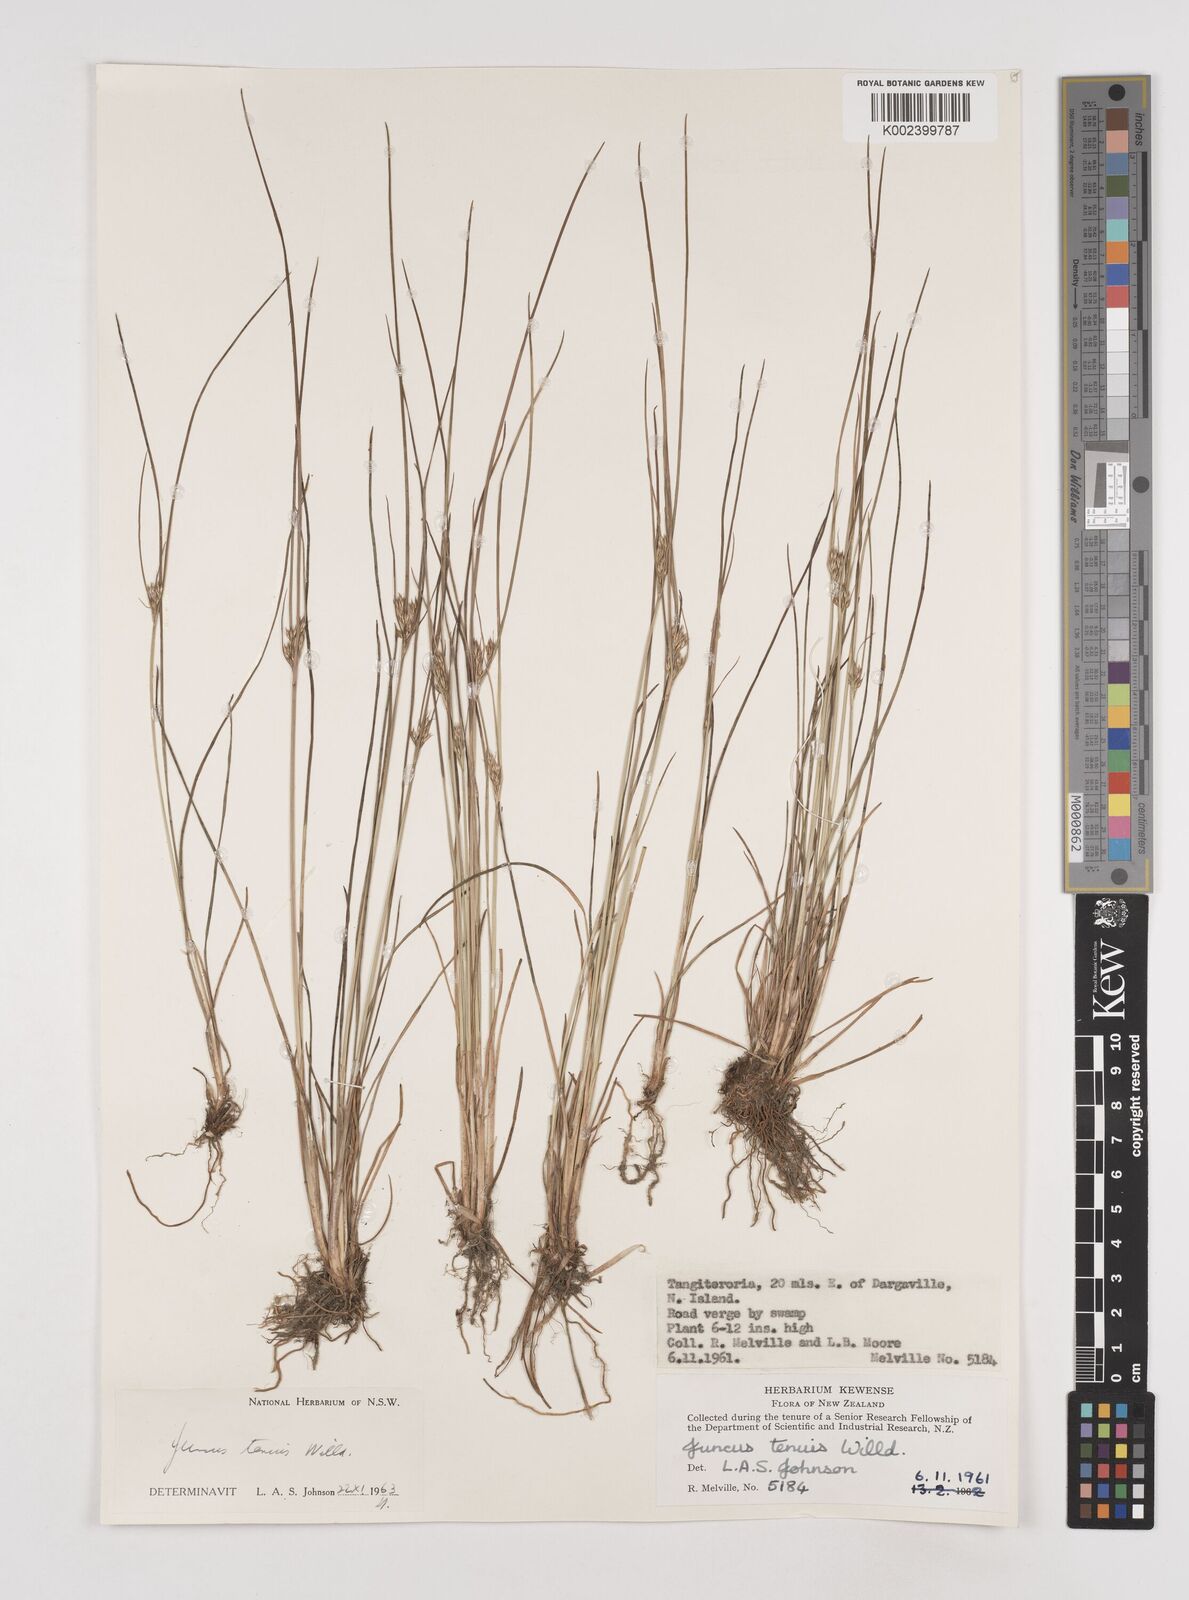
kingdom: Plantae
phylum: Tracheophyta
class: Liliopsida
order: Poales
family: Juncaceae
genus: Juncus
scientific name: Juncus tenuis
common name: Slender rush
